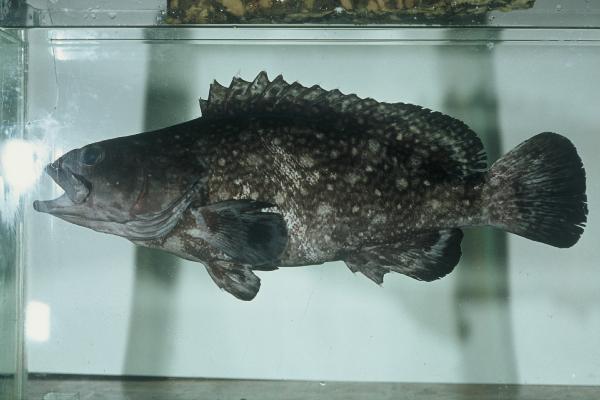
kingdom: Animalia
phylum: Chordata
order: Perciformes
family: Serranidae
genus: Epinephelus
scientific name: Epinephelus coeruleopunctatus
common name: Whitespotted grouper
